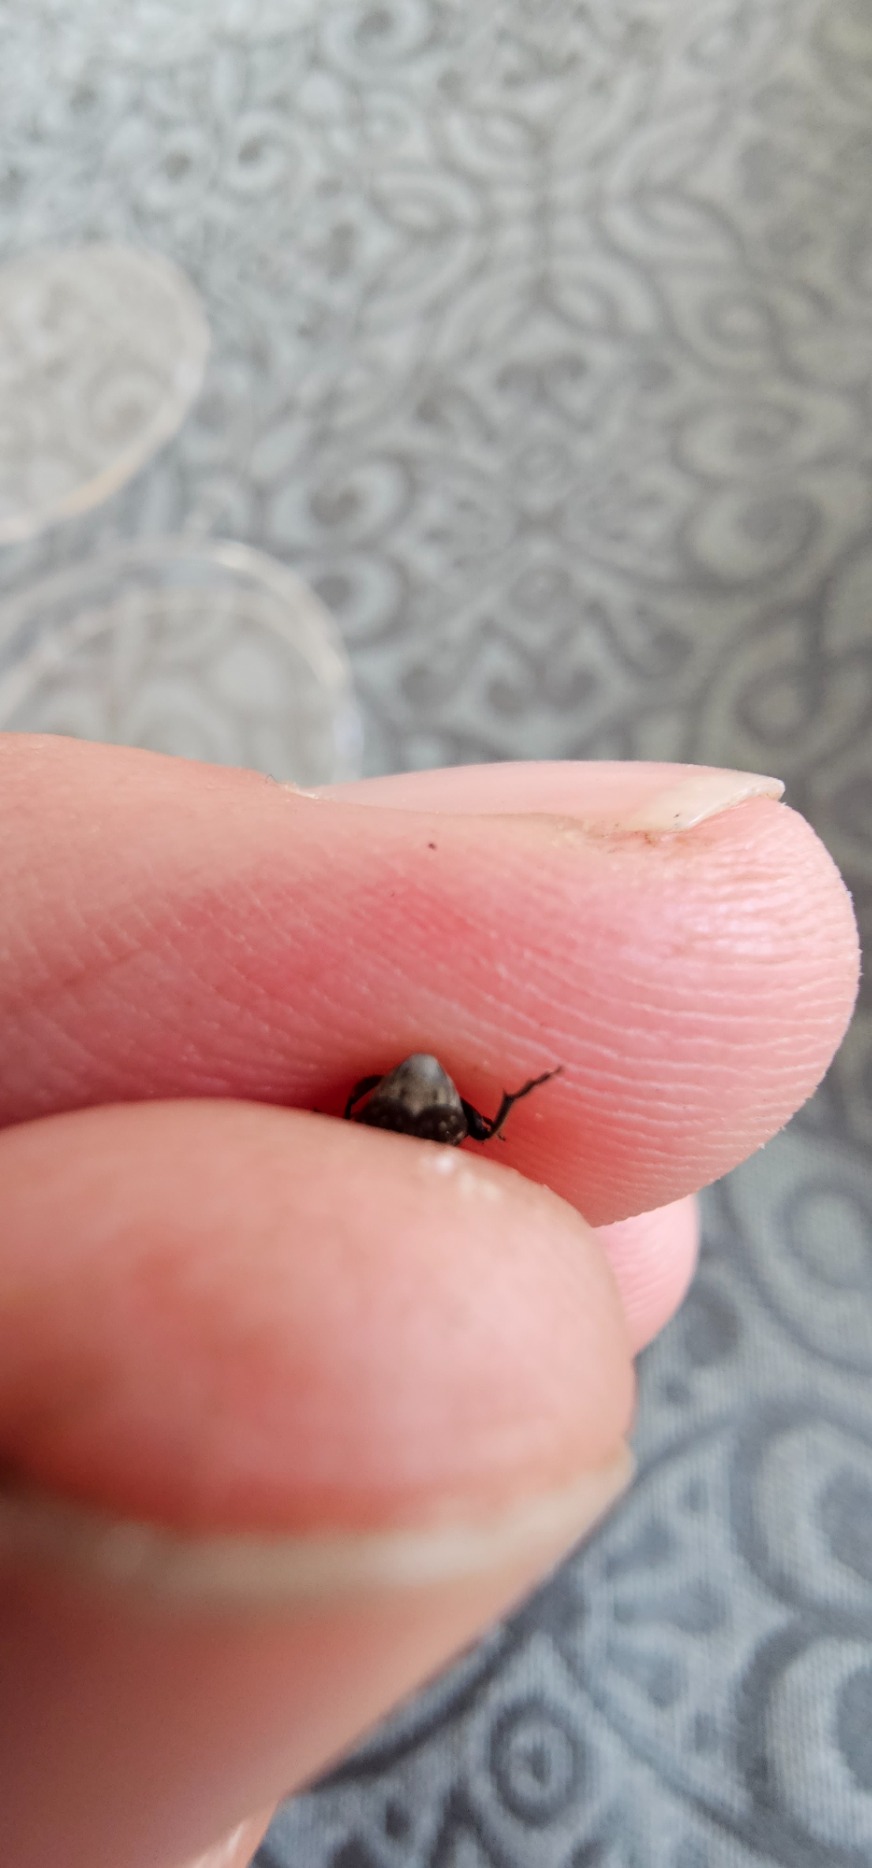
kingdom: Animalia
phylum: Arthropoda
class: Insecta
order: Coleoptera
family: Chrysomelidae
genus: Bruchus
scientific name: Bruchus rufimanus
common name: Hestebønnebille
